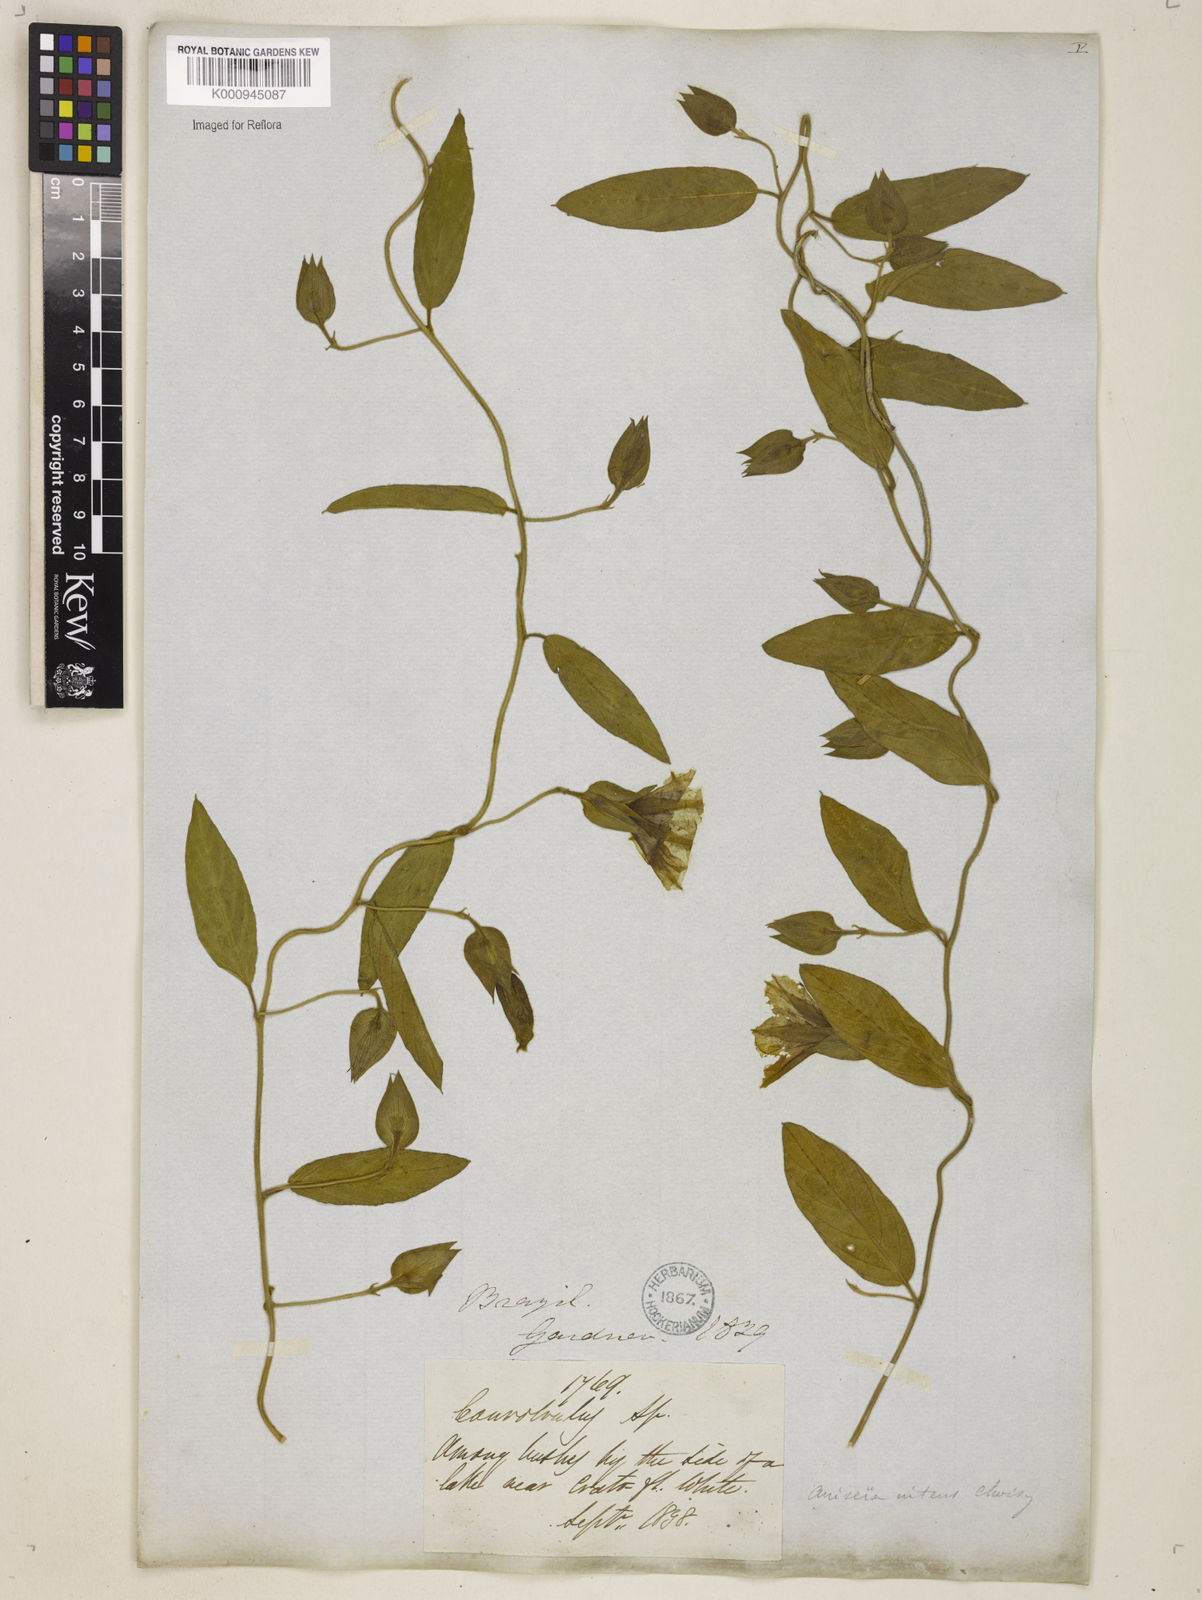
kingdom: Plantae
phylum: Tracheophyta
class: Magnoliopsida
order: Solanales
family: Convolvulaceae
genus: Aniseia
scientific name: Aniseia martinicensis
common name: Kulayadambu
